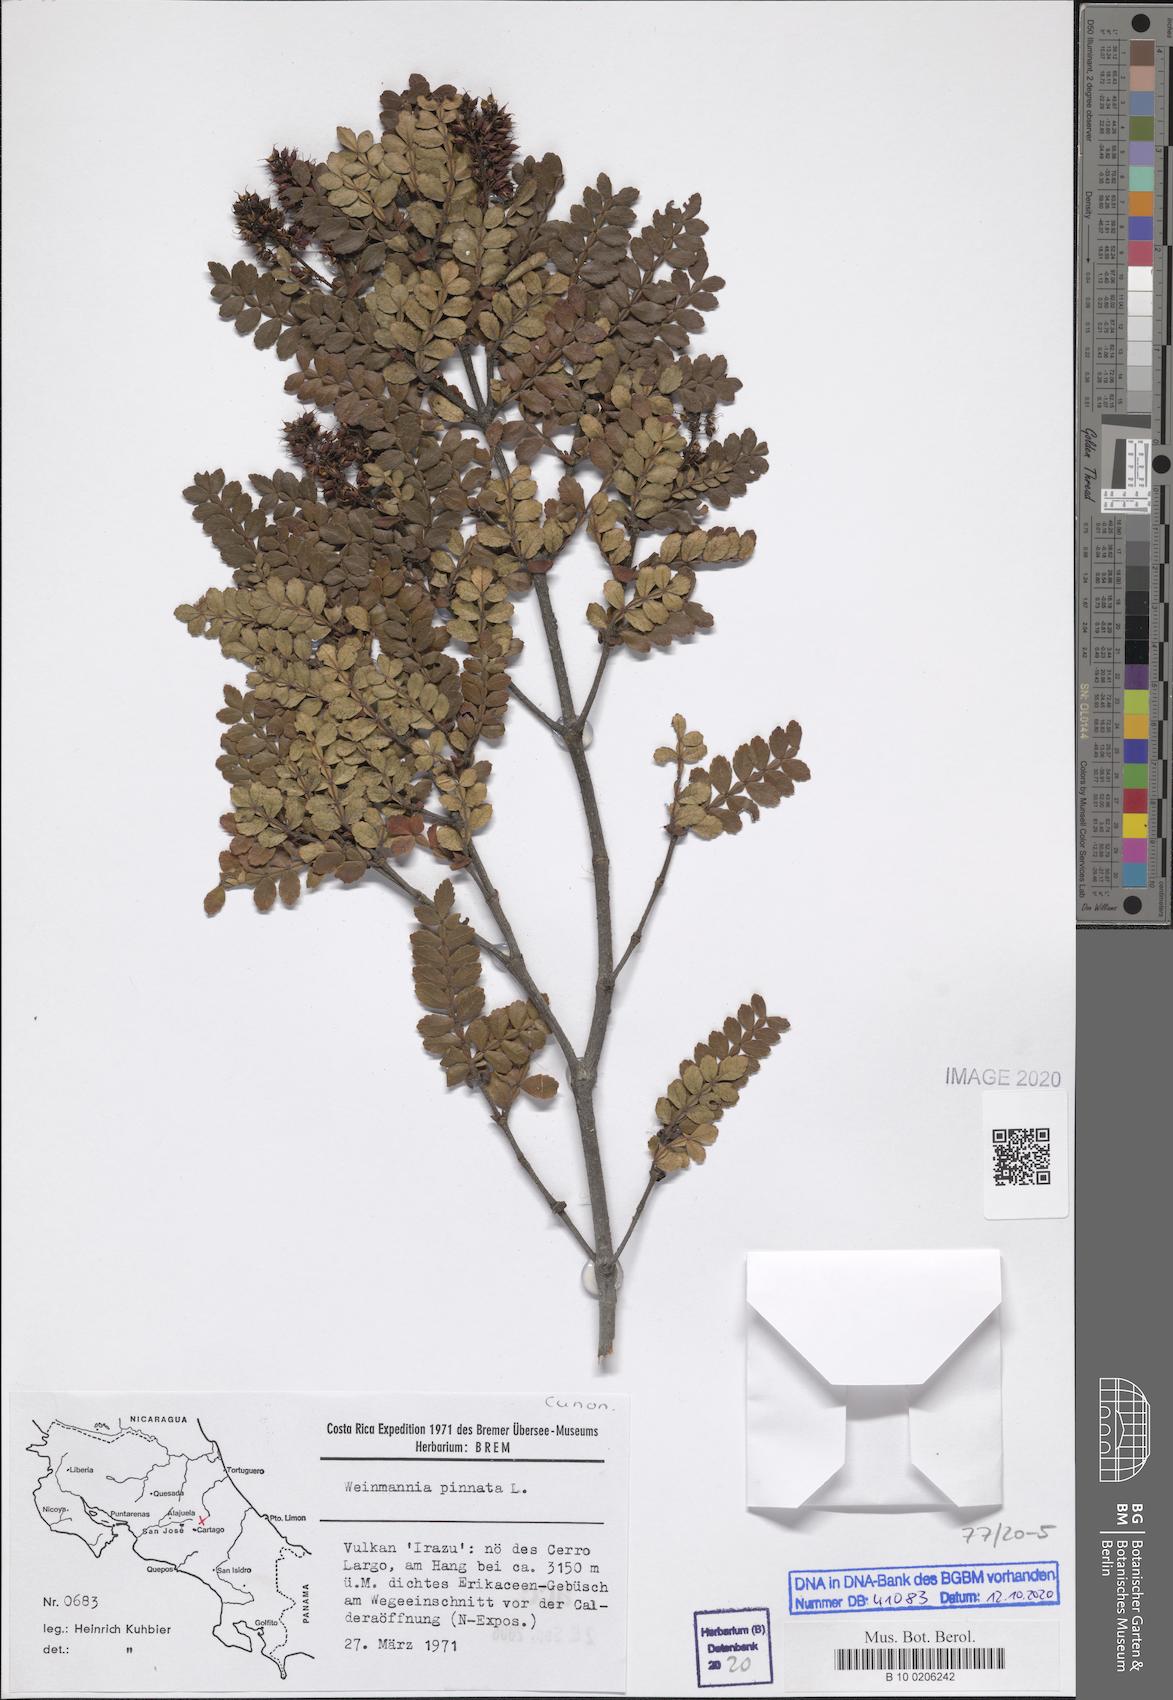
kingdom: Plantae
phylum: Tracheophyta
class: Magnoliopsida
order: Oxalidales
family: Cunoniaceae
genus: Weinmannia
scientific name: Weinmannia pinnata
